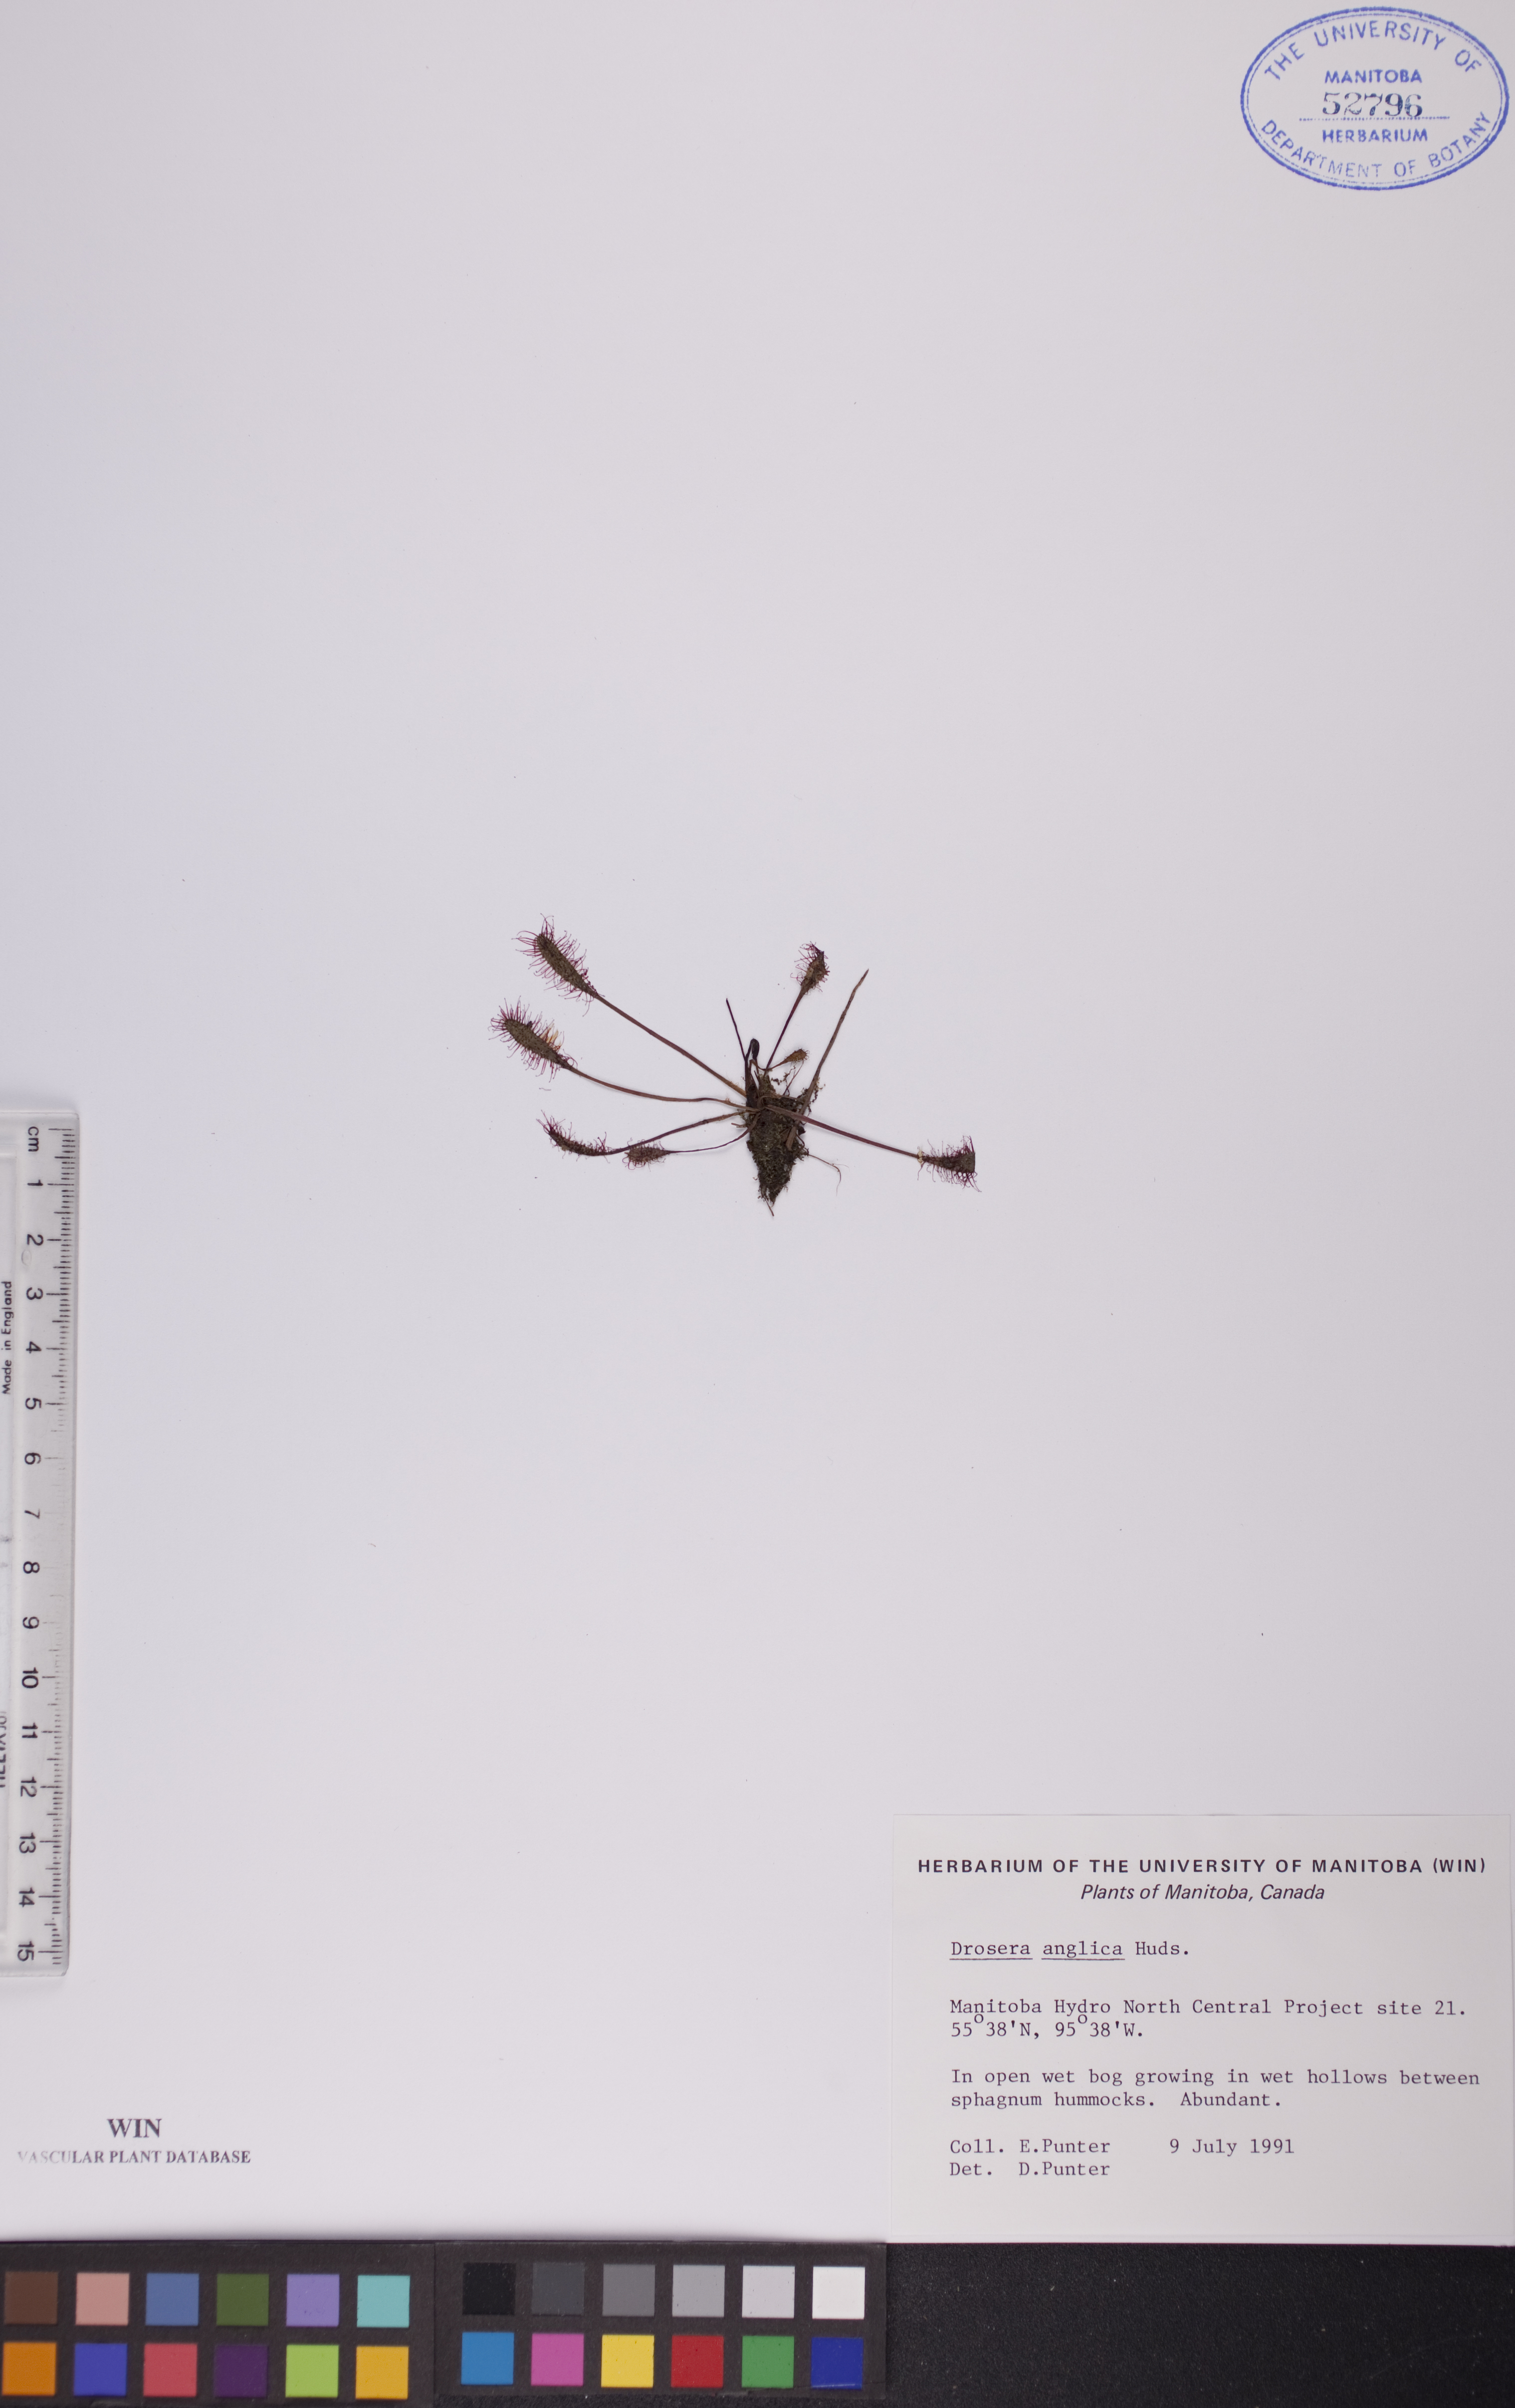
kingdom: Plantae
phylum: Tracheophyta
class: Magnoliopsida
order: Caryophyllales
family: Droseraceae
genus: Drosera
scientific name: Drosera anglica
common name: Great sundew
